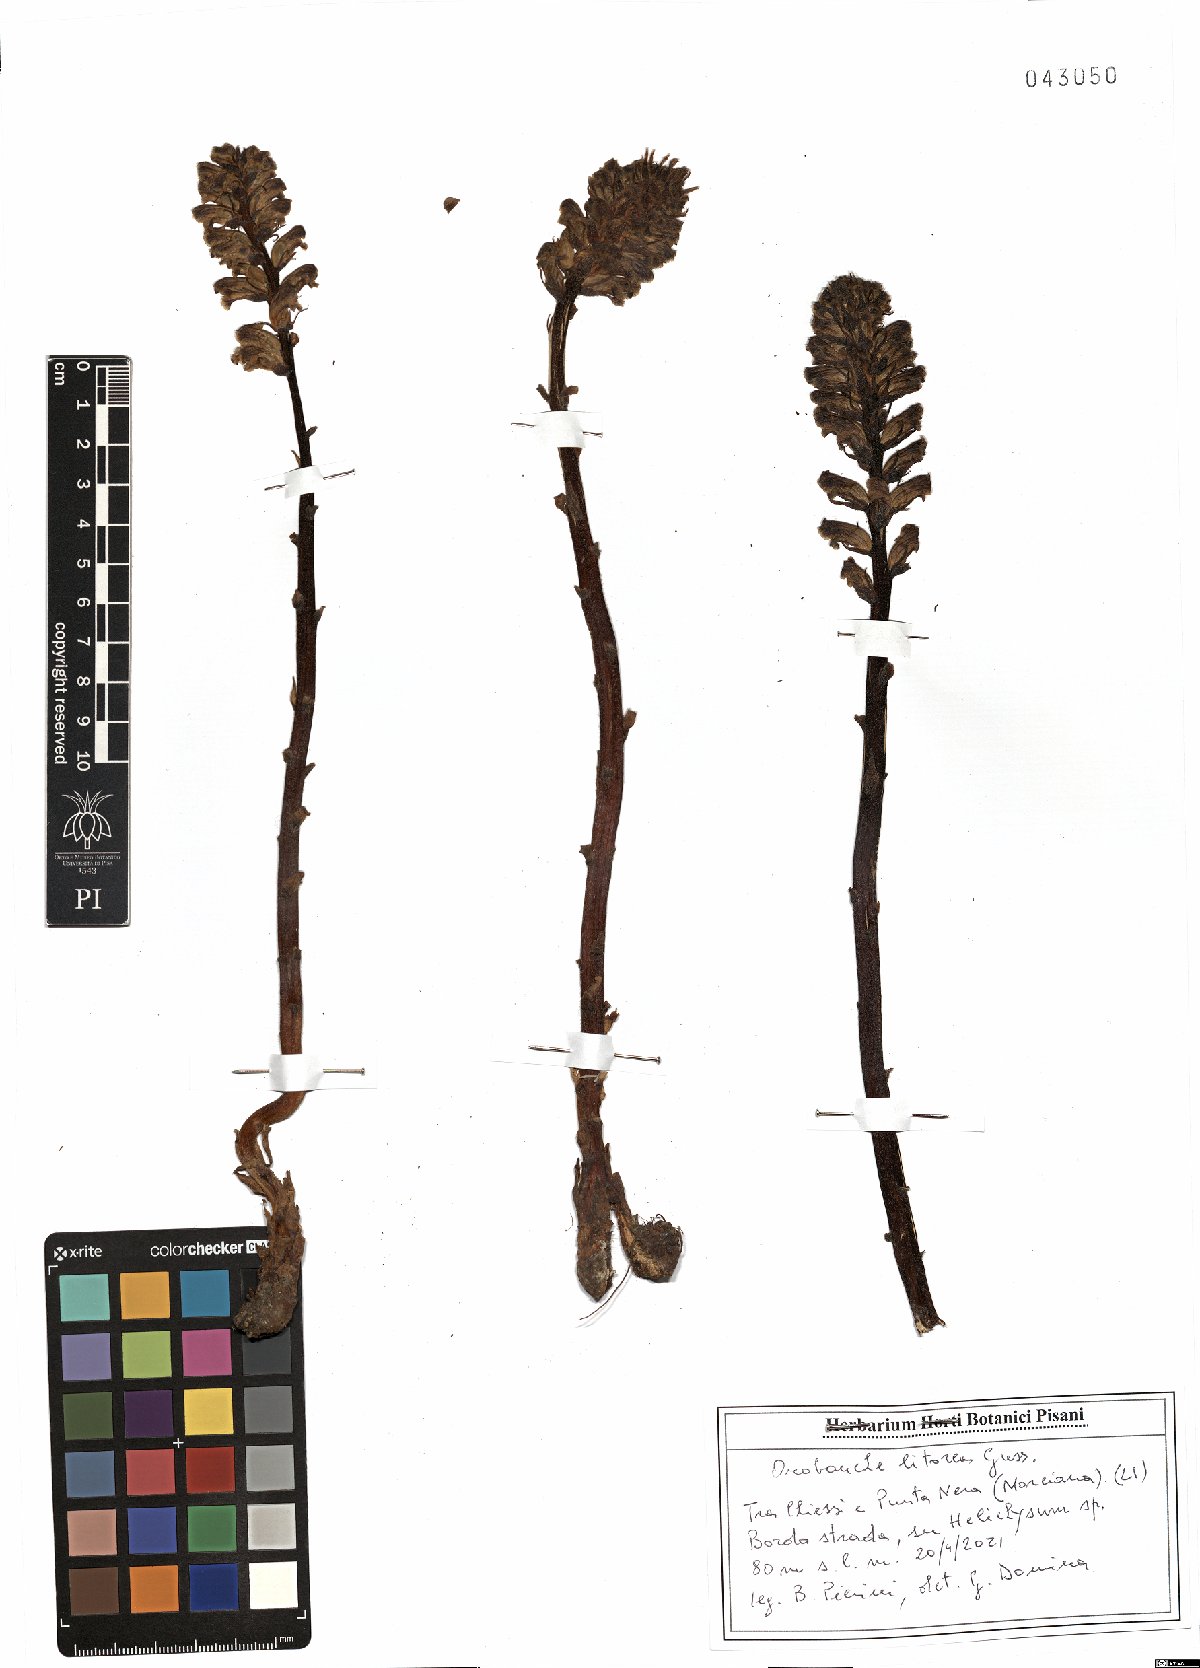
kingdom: Plantae
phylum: Tracheophyta
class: Magnoliopsida
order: Lamiales
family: Orobanchaceae
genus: Orobanche
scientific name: Orobanche litorea
